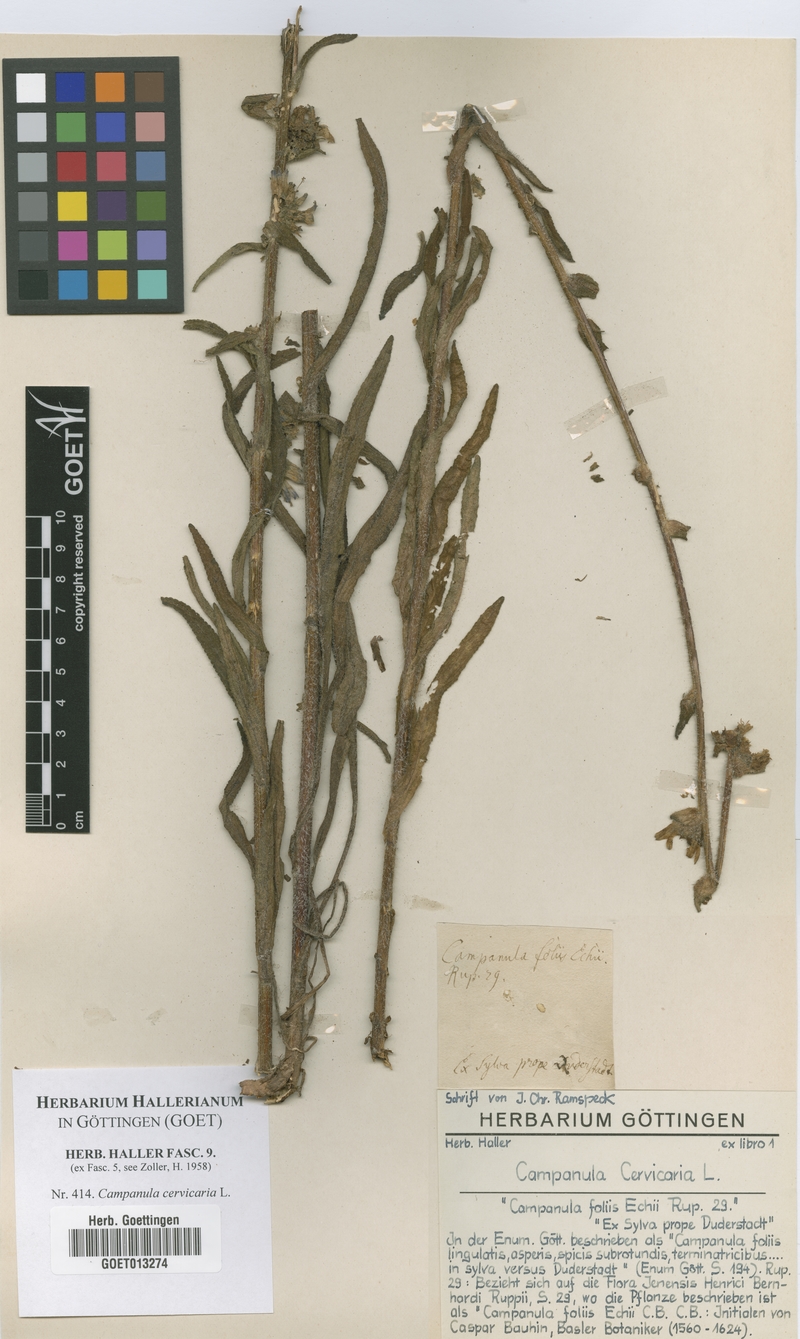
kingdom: Plantae
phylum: Tracheophyta
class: Magnoliopsida
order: Asterales
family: Campanulaceae
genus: Campanula
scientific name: Campanula cervicaria
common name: Bristly bellflower
